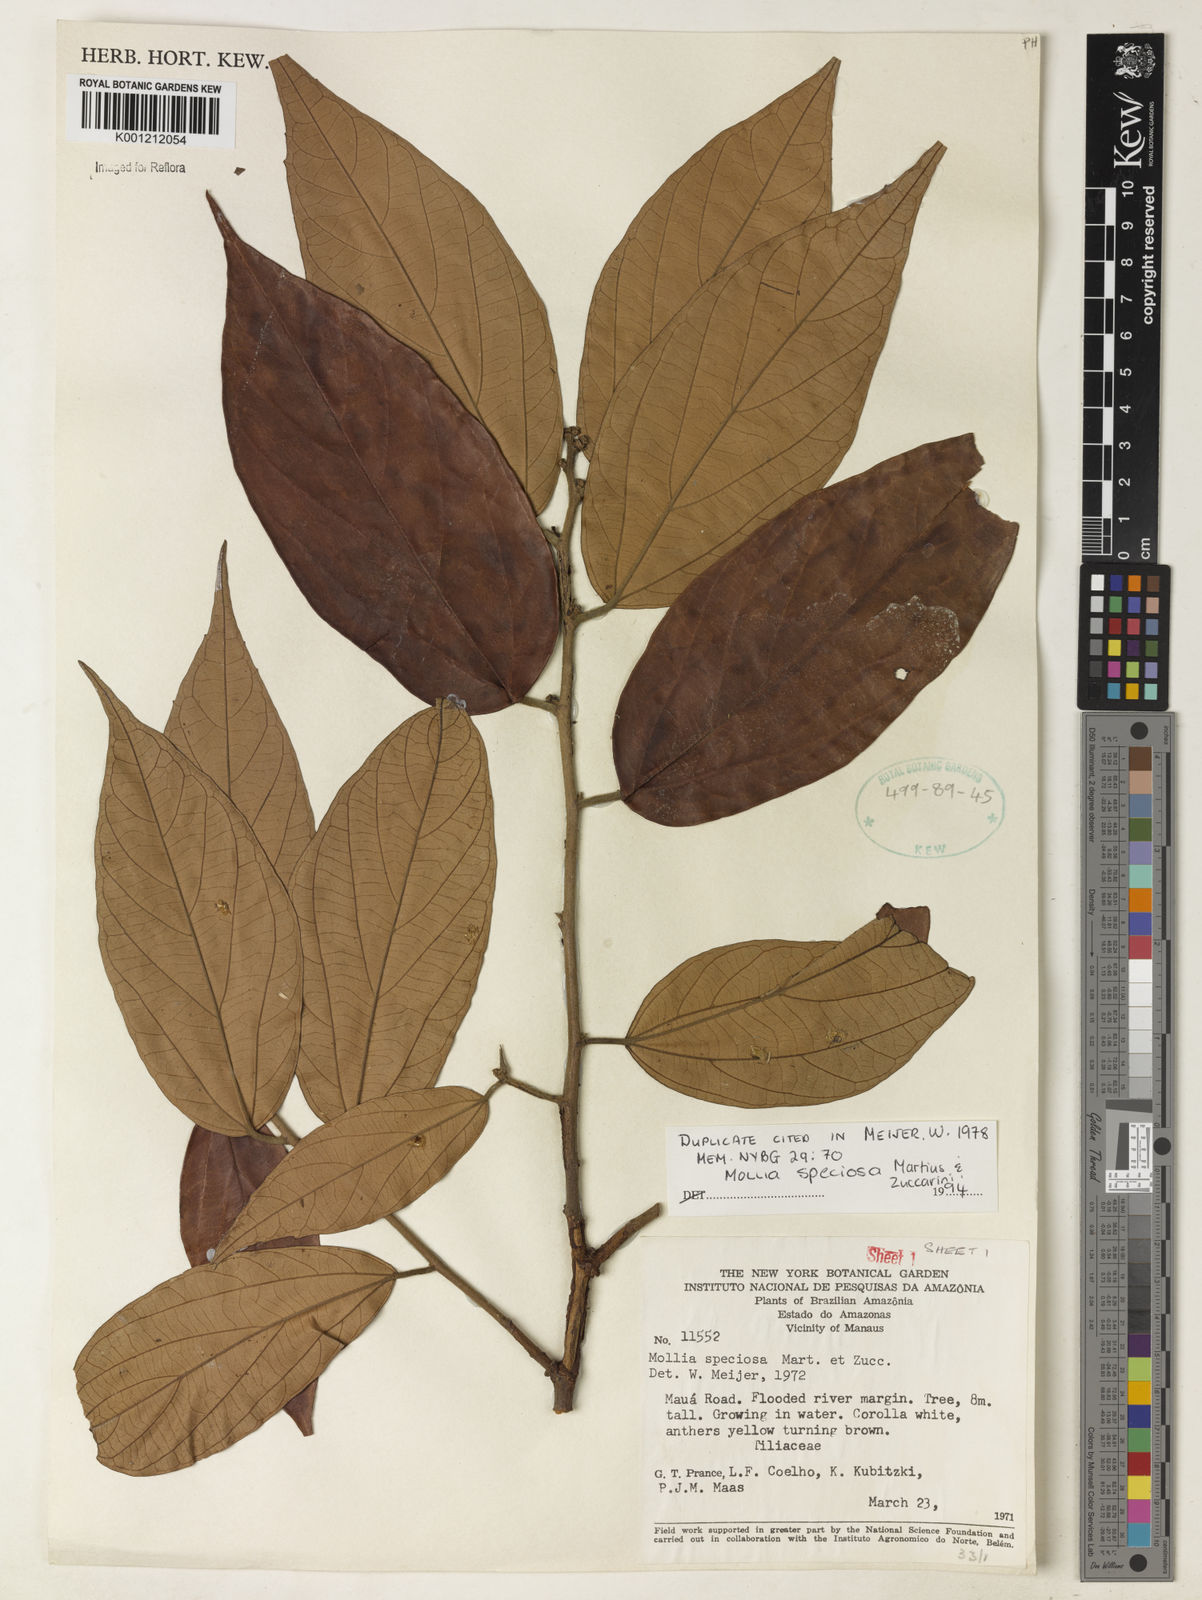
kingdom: Plantae
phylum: Tracheophyta
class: Magnoliopsida
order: Malvales
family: Malvaceae
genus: Mollia
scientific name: Mollia speciosa
